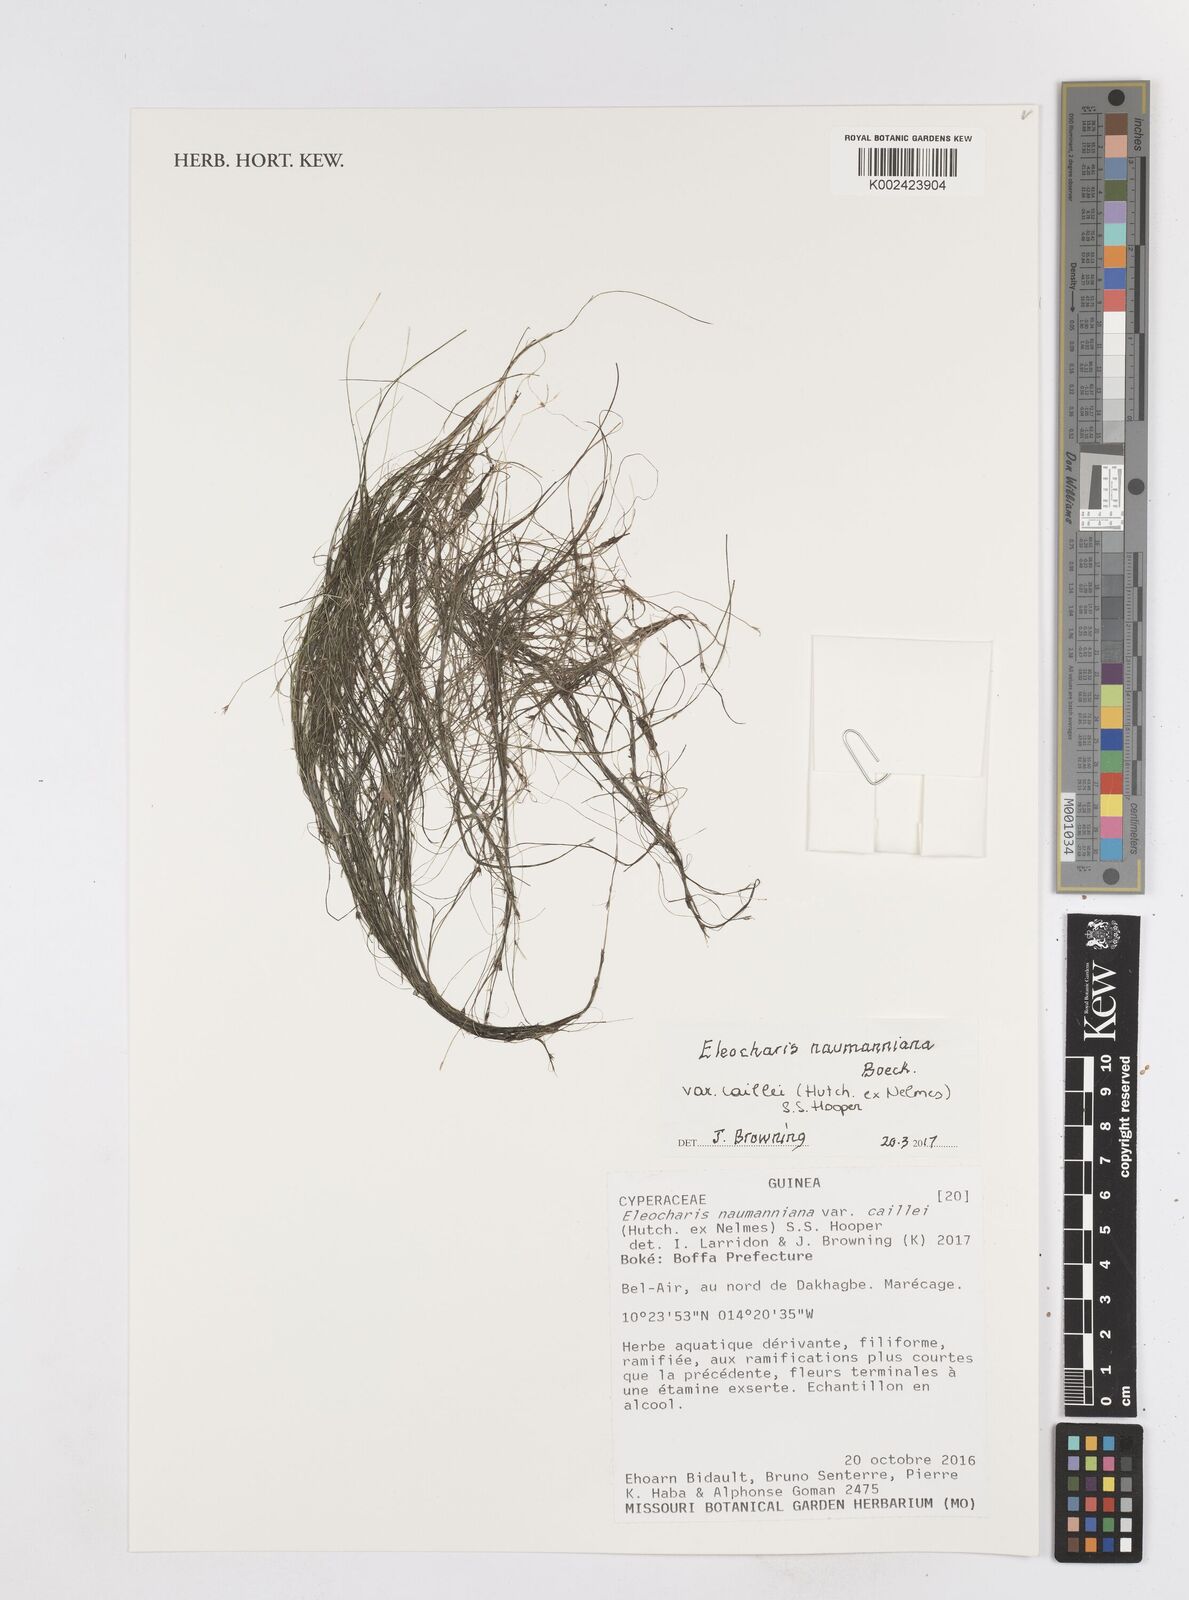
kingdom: Plantae
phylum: Tracheophyta
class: Liliopsida
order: Poales
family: Cyperaceae
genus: Eleocharis
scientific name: Eleocharis naumanniana
